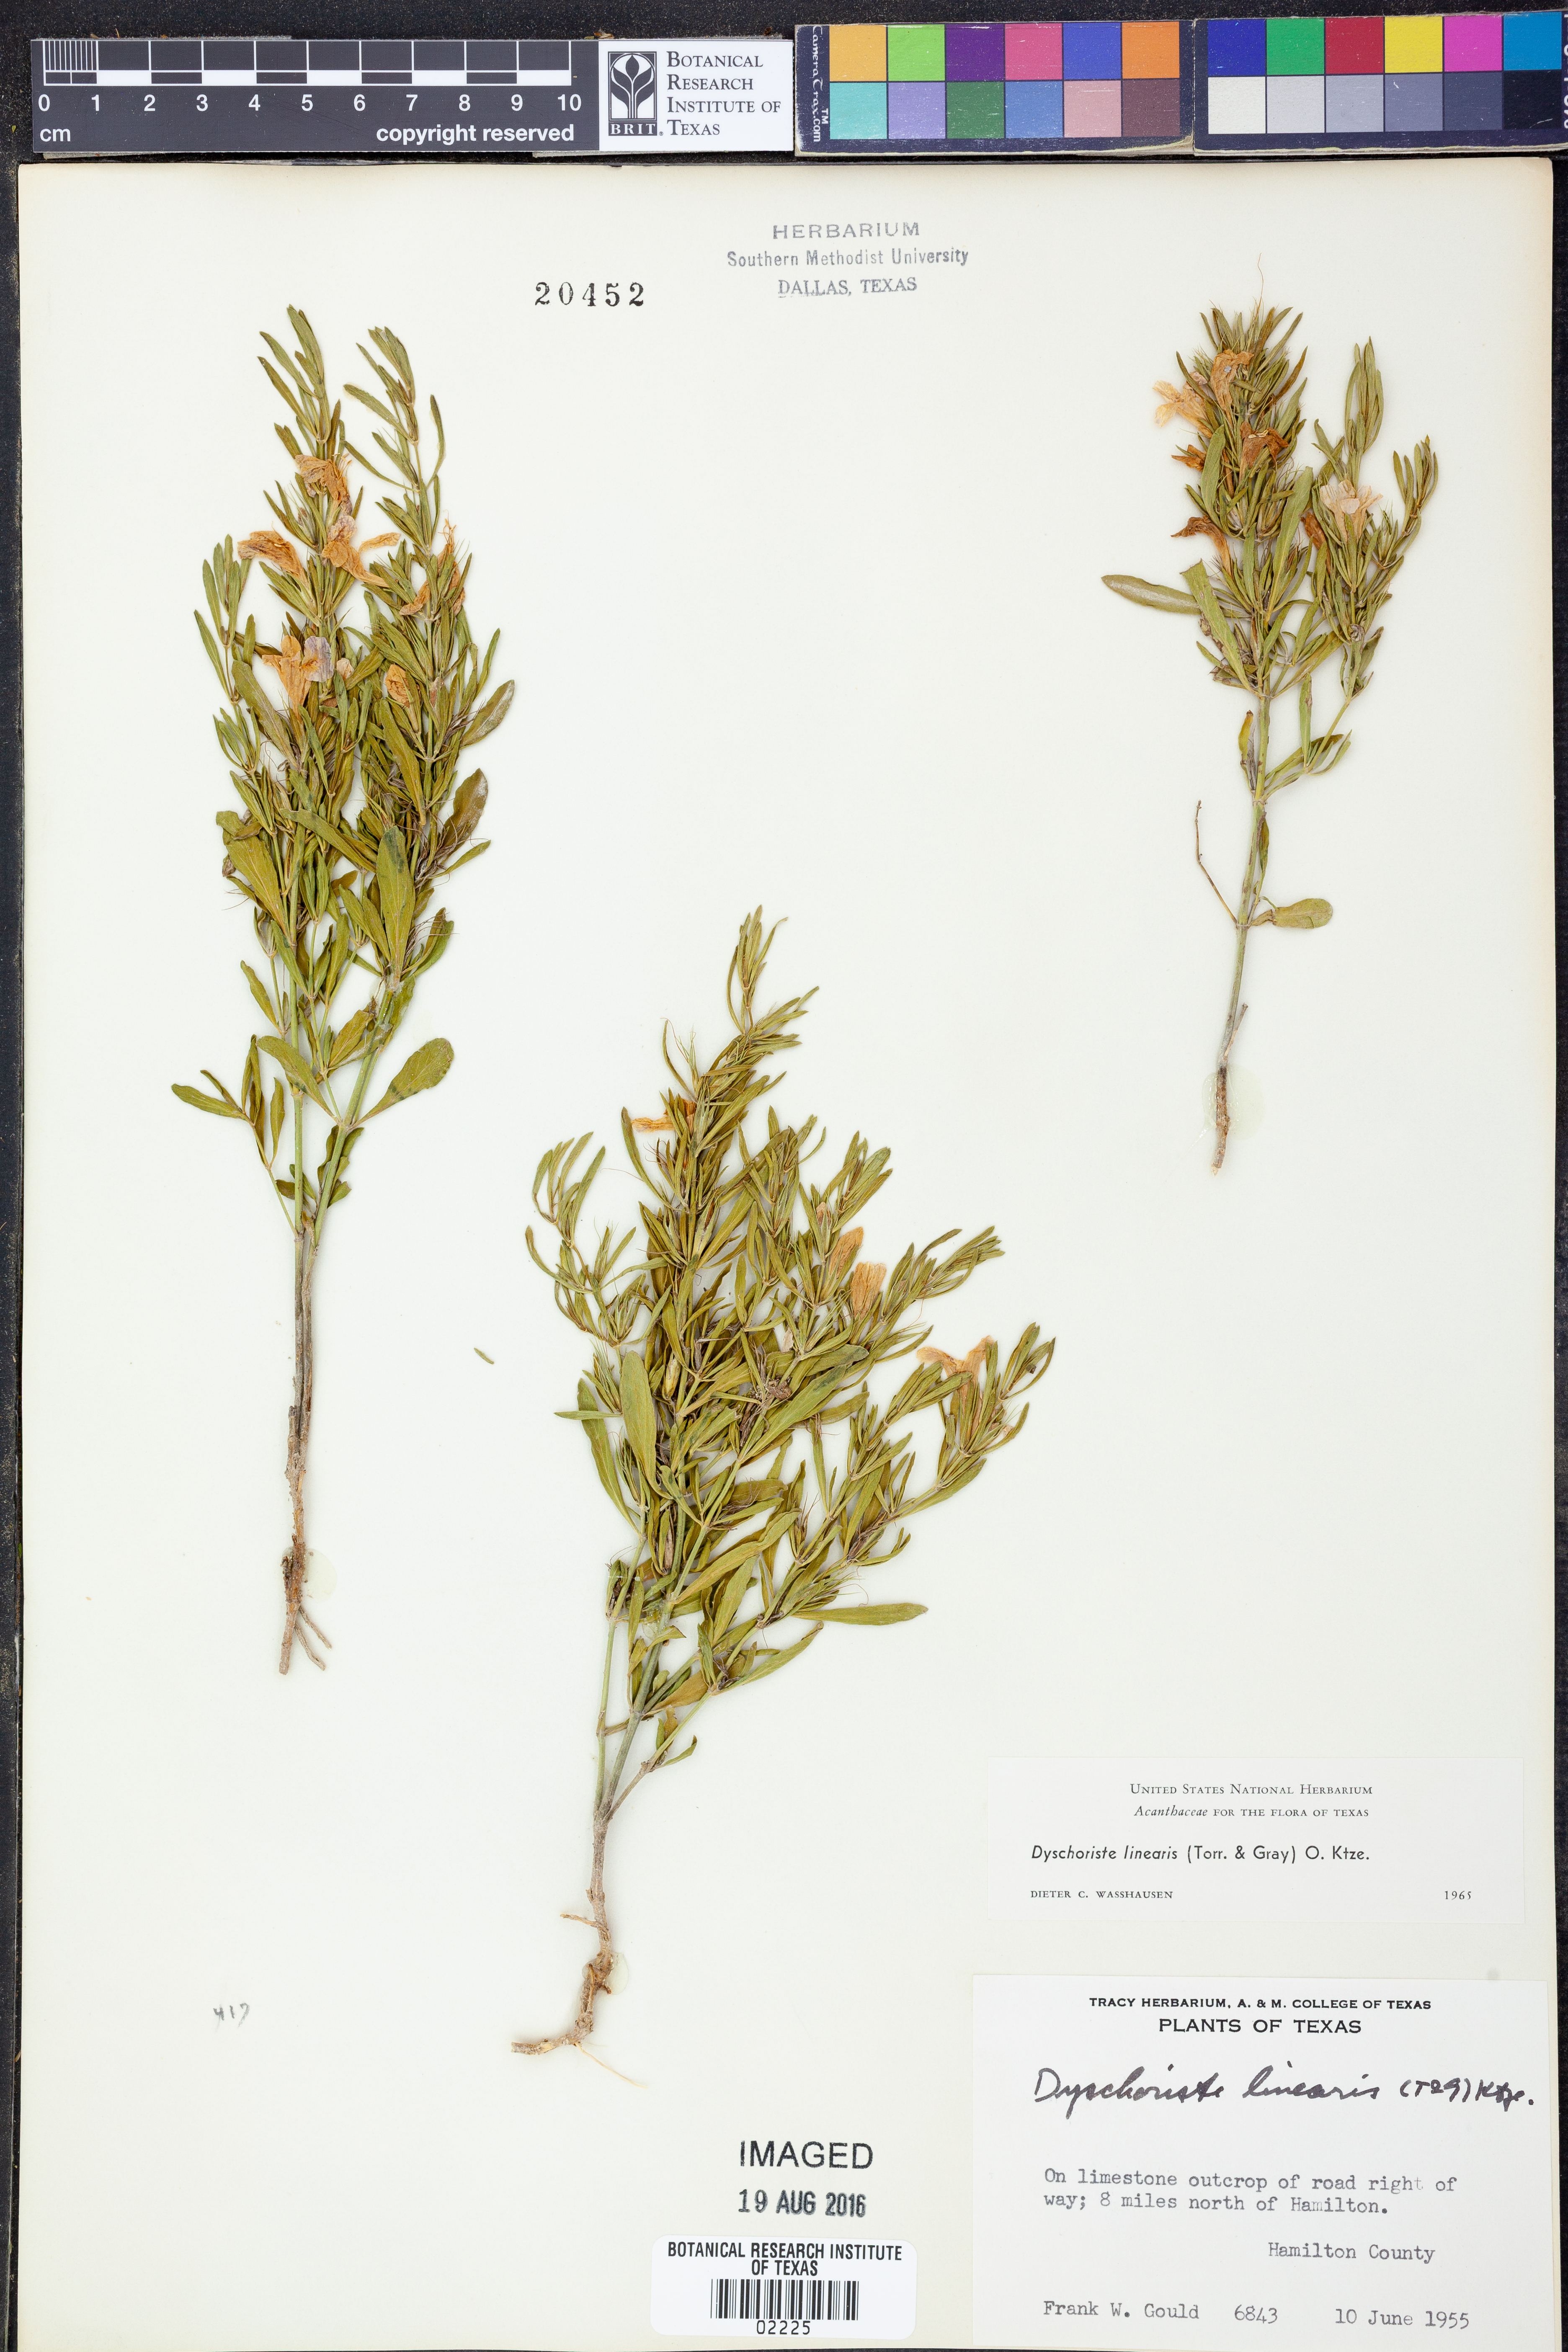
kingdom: Plantae
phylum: Tracheophyta
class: Magnoliopsida
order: Lamiales
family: Acanthaceae
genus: Dyschoriste
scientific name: Dyschoriste linearis
